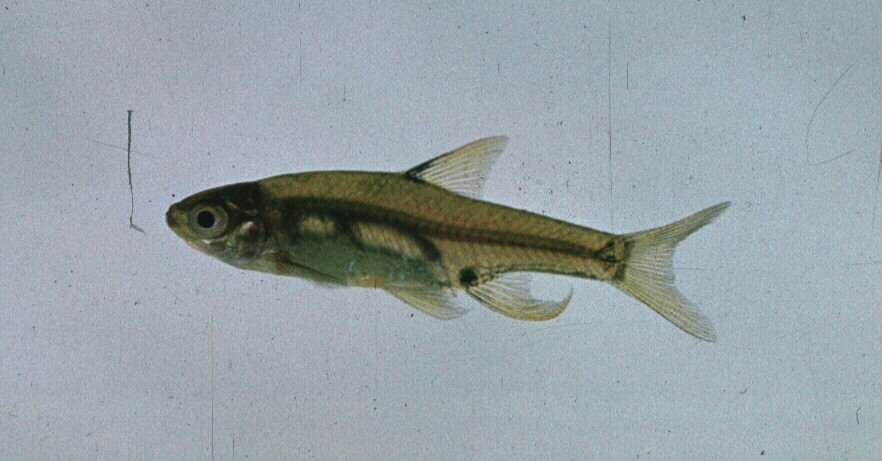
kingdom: Animalia
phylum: Chordata
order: Cypriniformes
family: Cyprinidae
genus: Enteromius
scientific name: Enteromius haasianus
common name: Sickle-fin barb
